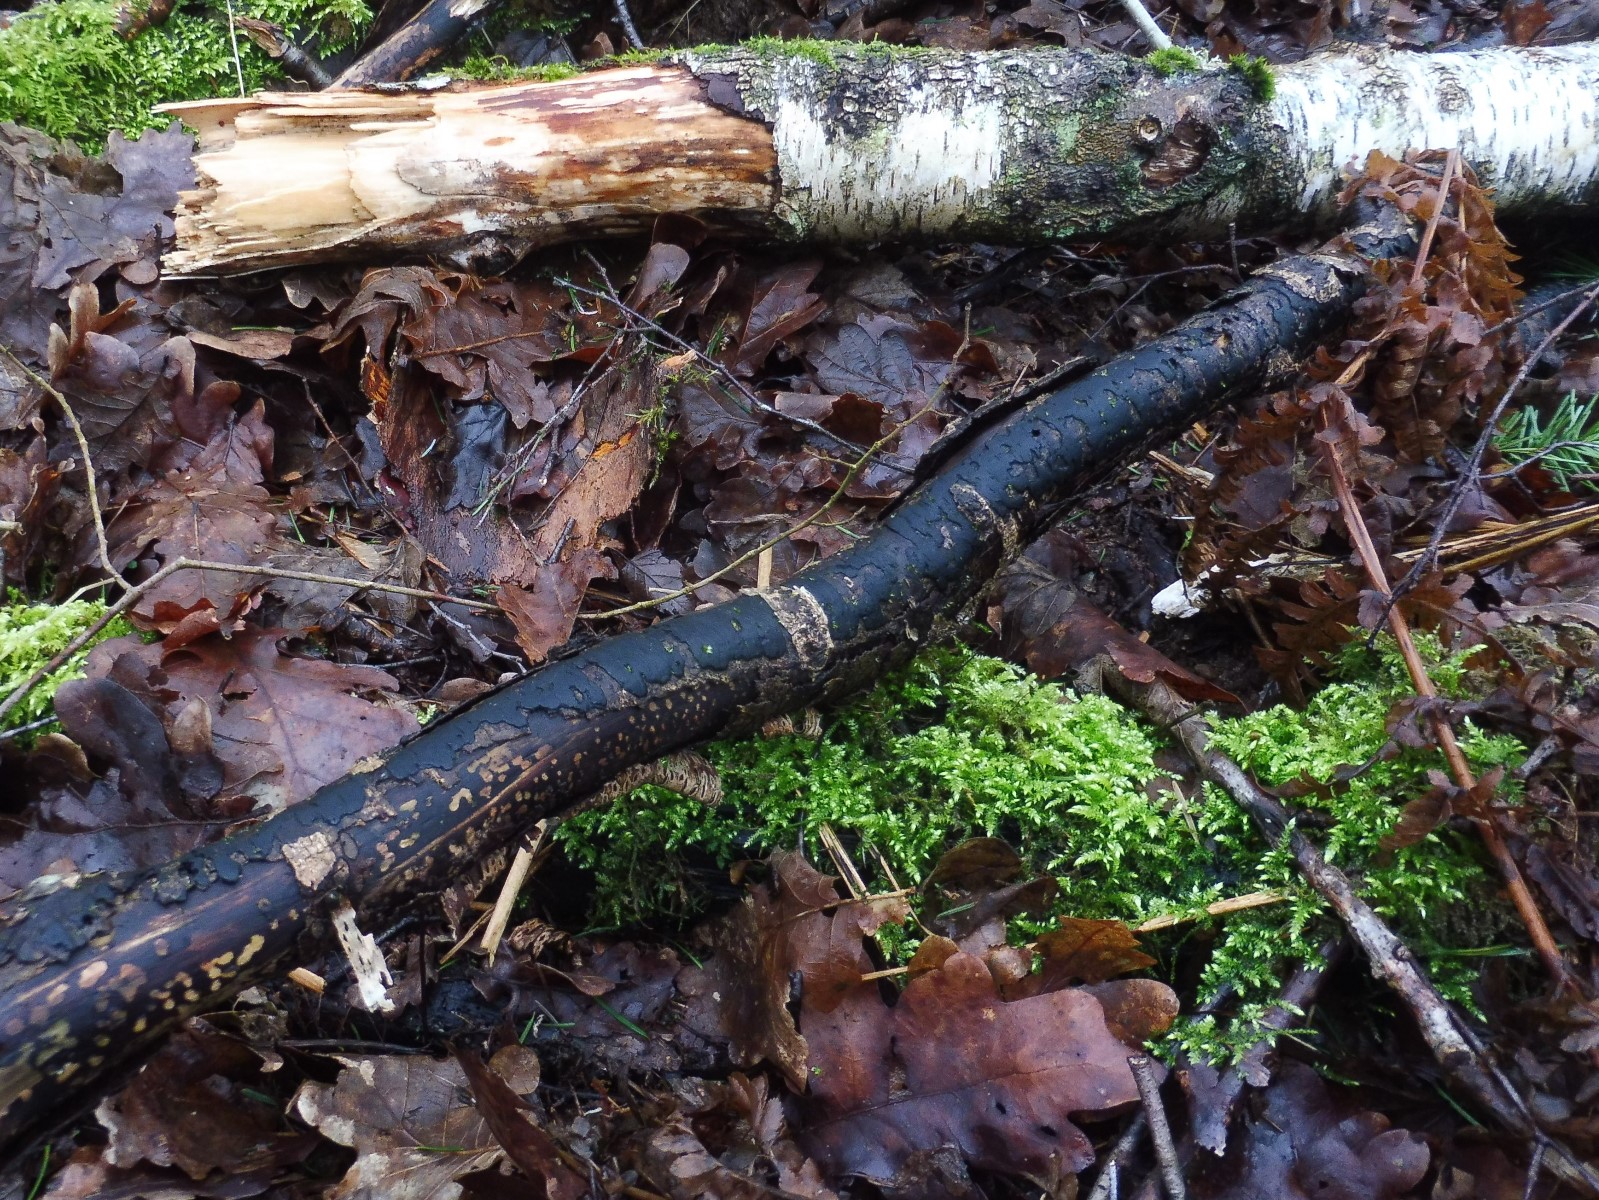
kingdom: Fungi
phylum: Ascomycota
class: Sordariomycetes
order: Xylariales
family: Diatrypaceae
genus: Diatrype
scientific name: Diatrype
